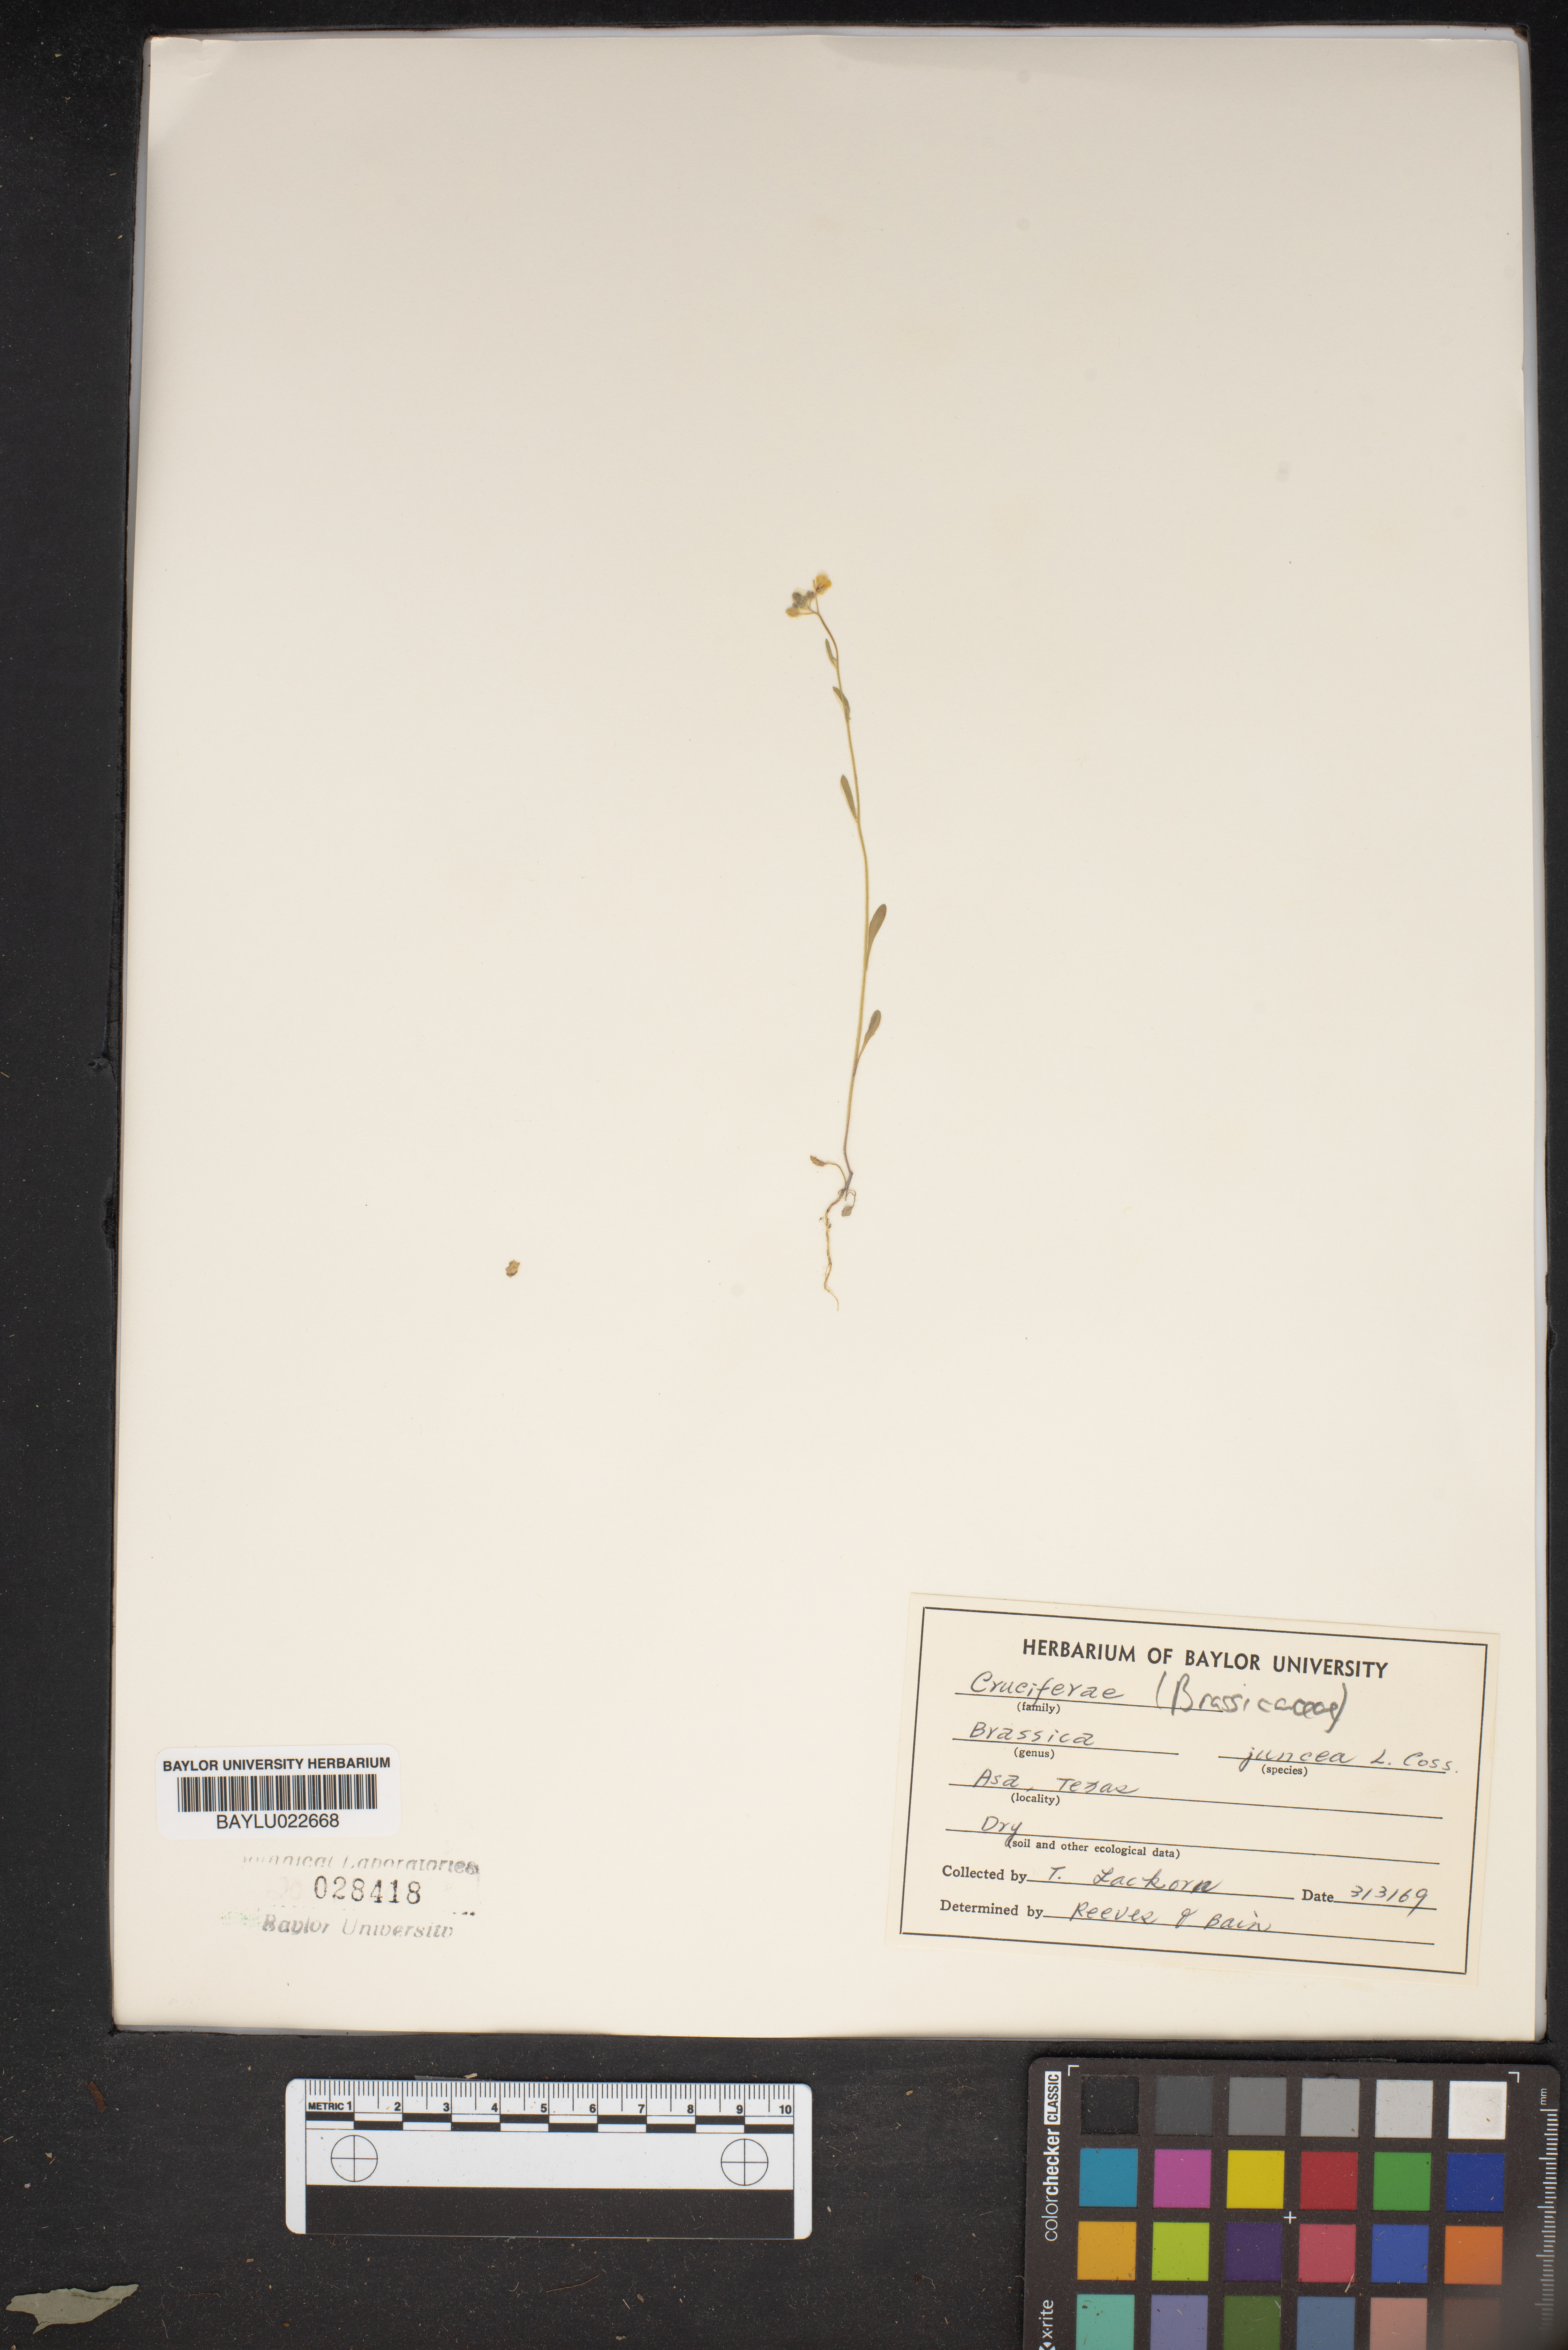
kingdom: Plantae
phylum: Tracheophyta
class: Magnoliopsida
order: Brassicales
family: Brassicaceae
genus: Brassica
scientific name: Brassica juncea
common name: Brown mustard
